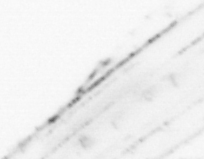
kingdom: Animalia
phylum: Chaetognatha
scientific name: Chaetognatha
